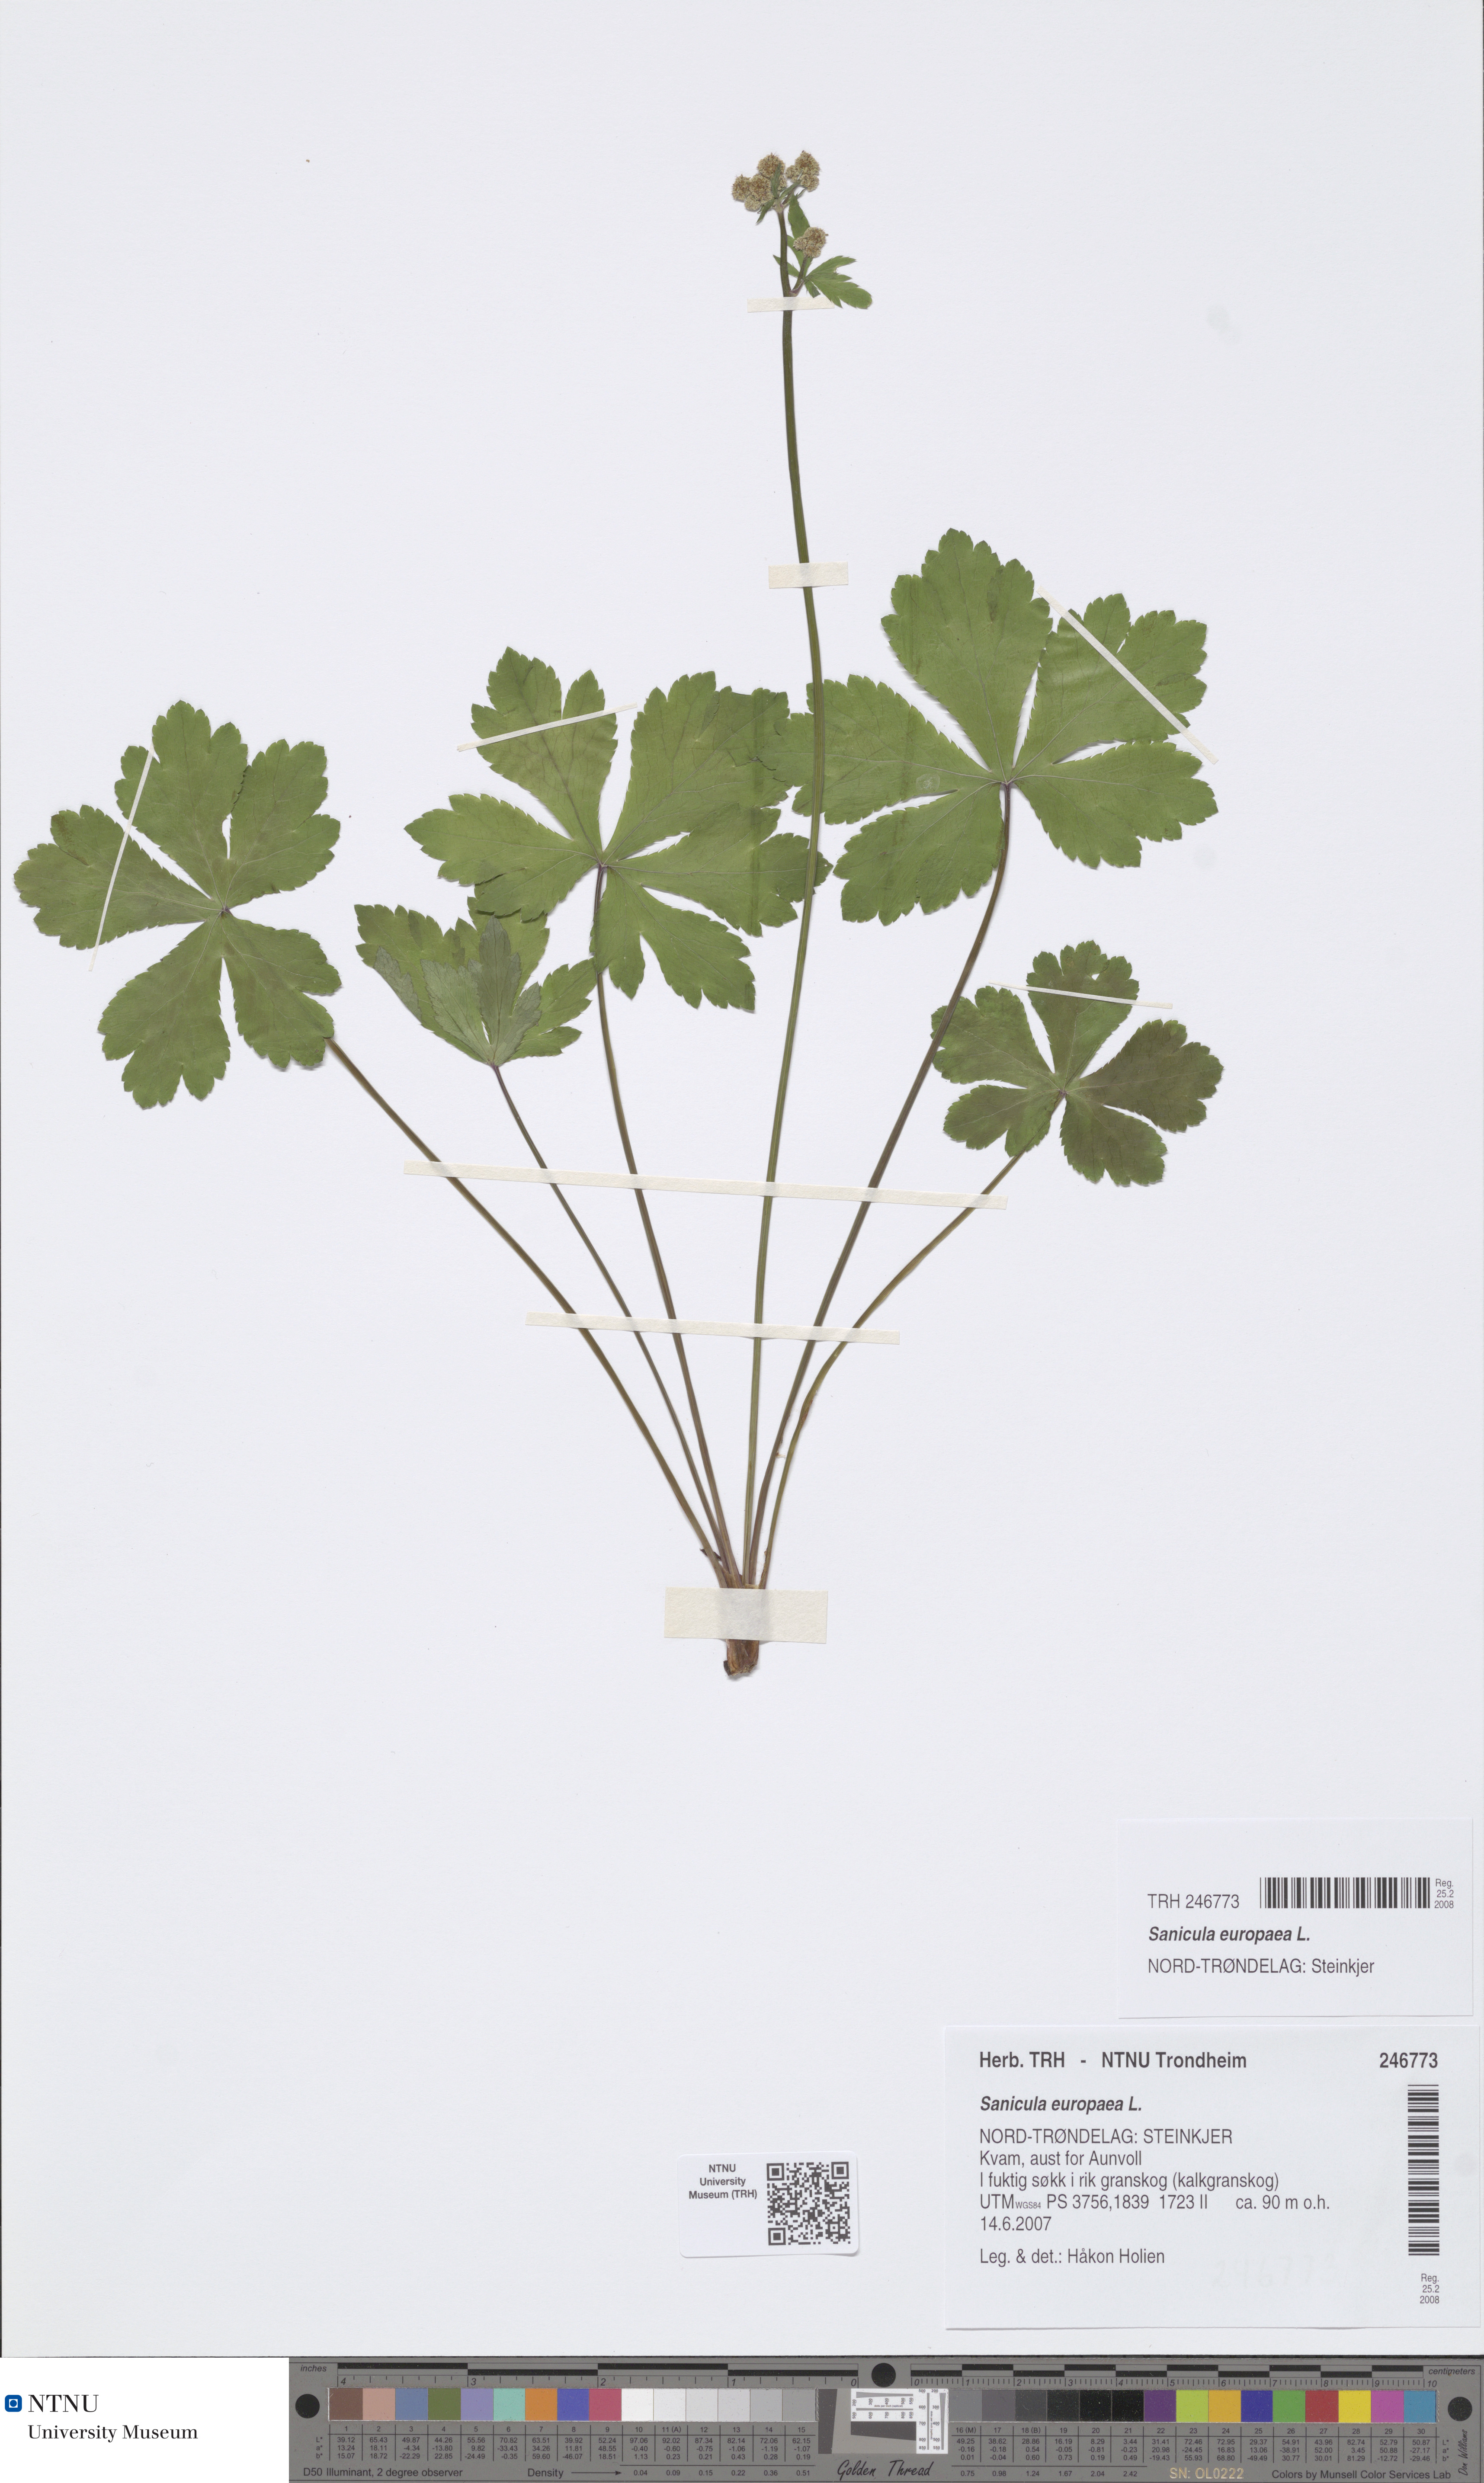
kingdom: Plantae
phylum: Tracheophyta
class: Magnoliopsida
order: Apiales
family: Apiaceae
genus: Sanicula
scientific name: Sanicula europaea
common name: Sanicle
